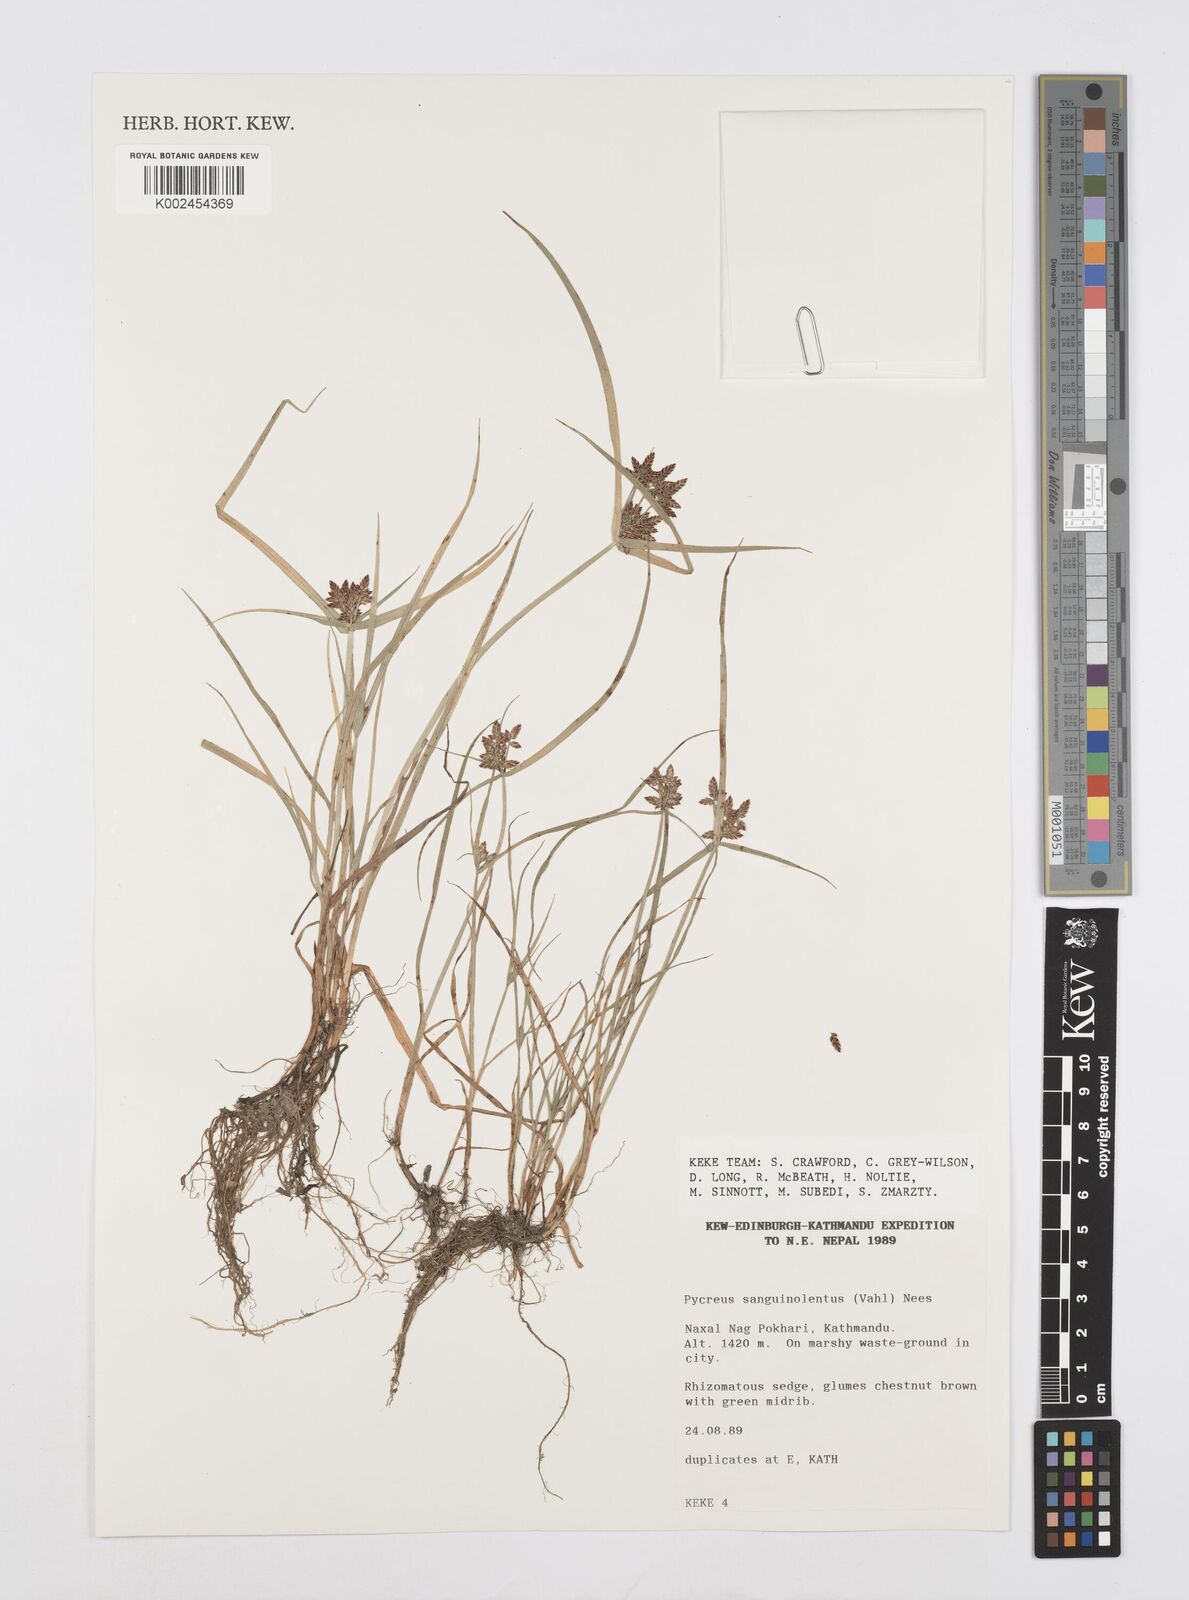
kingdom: Plantae
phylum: Tracheophyta
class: Liliopsida
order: Poales
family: Cyperaceae
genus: Cyperus
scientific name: Cyperus sanguinolentus
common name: Purpleglume flatsedge
